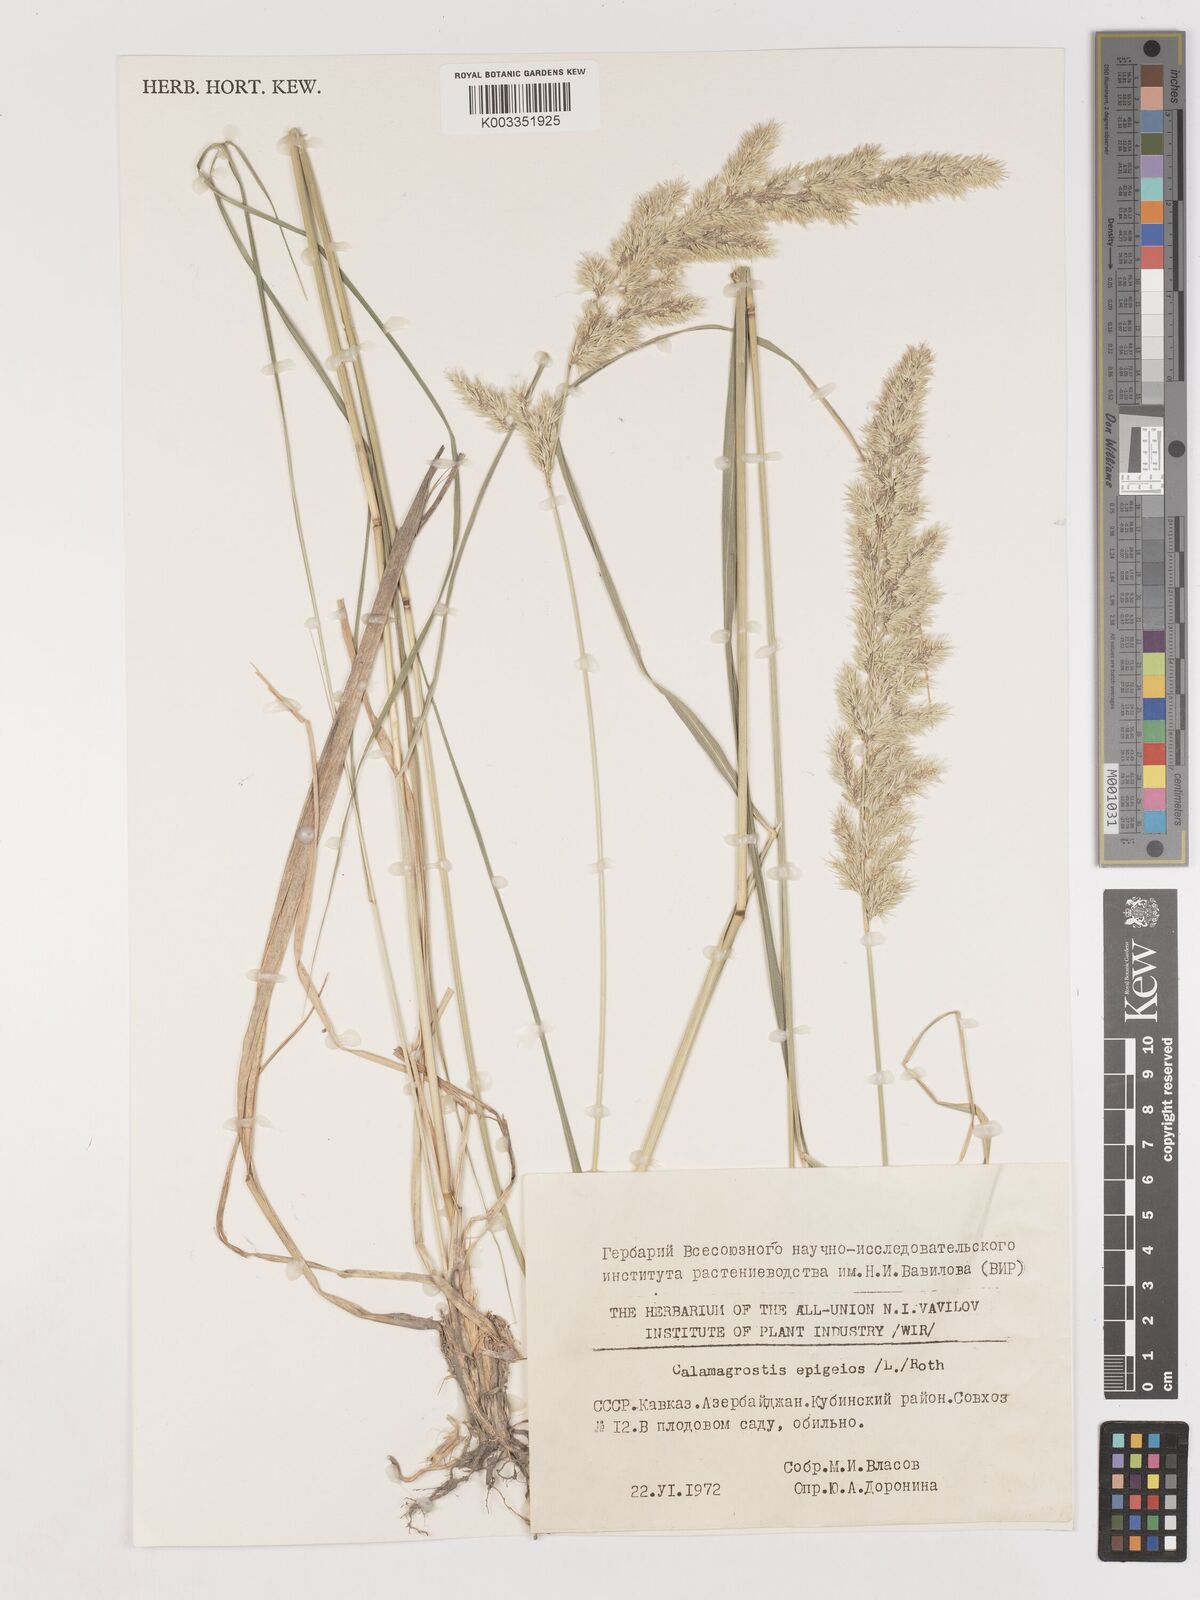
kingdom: Plantae
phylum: Tracheophyta
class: Liliopsida
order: Poales
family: Poaceae
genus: Calamagrostis
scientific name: Calamagrostis epigejos
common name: Wood small-reed
